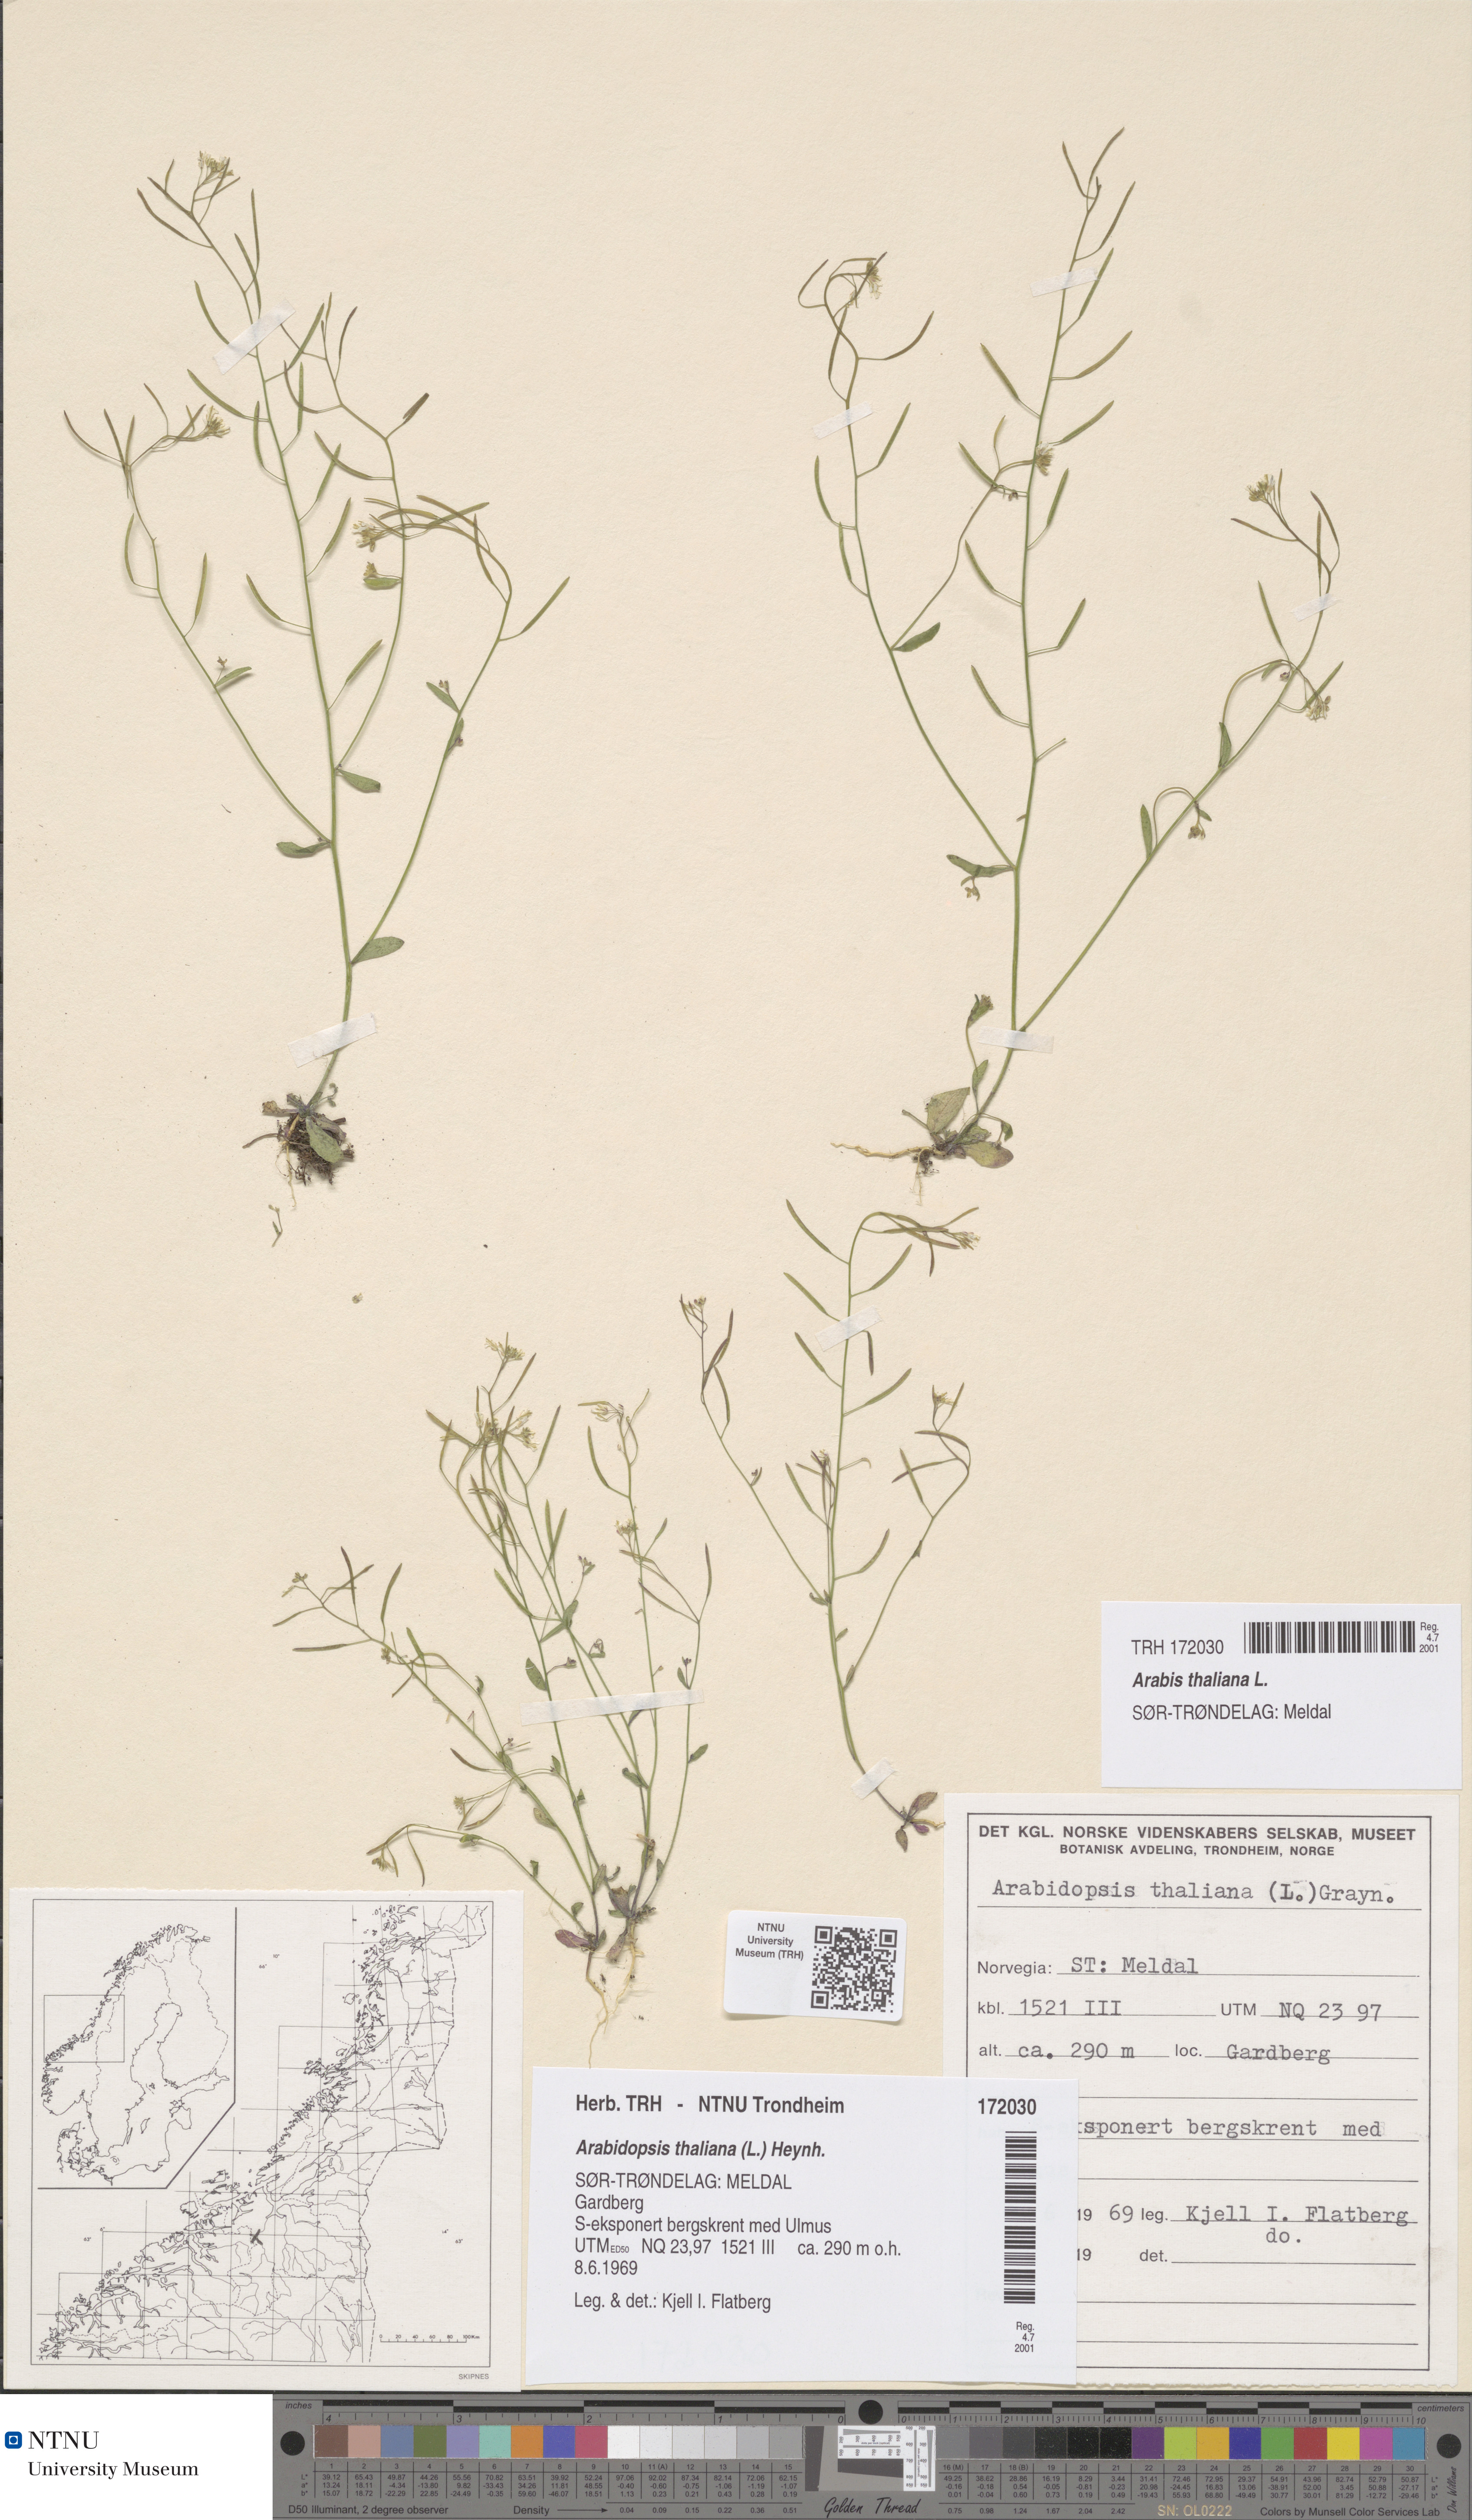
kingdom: Plantae
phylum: Tracheophyta
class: Magnoliopsida
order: Brassicales
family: Brassicaceae
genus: Arabidopsis
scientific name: Arabidopsis thaliana
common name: Thale cress
